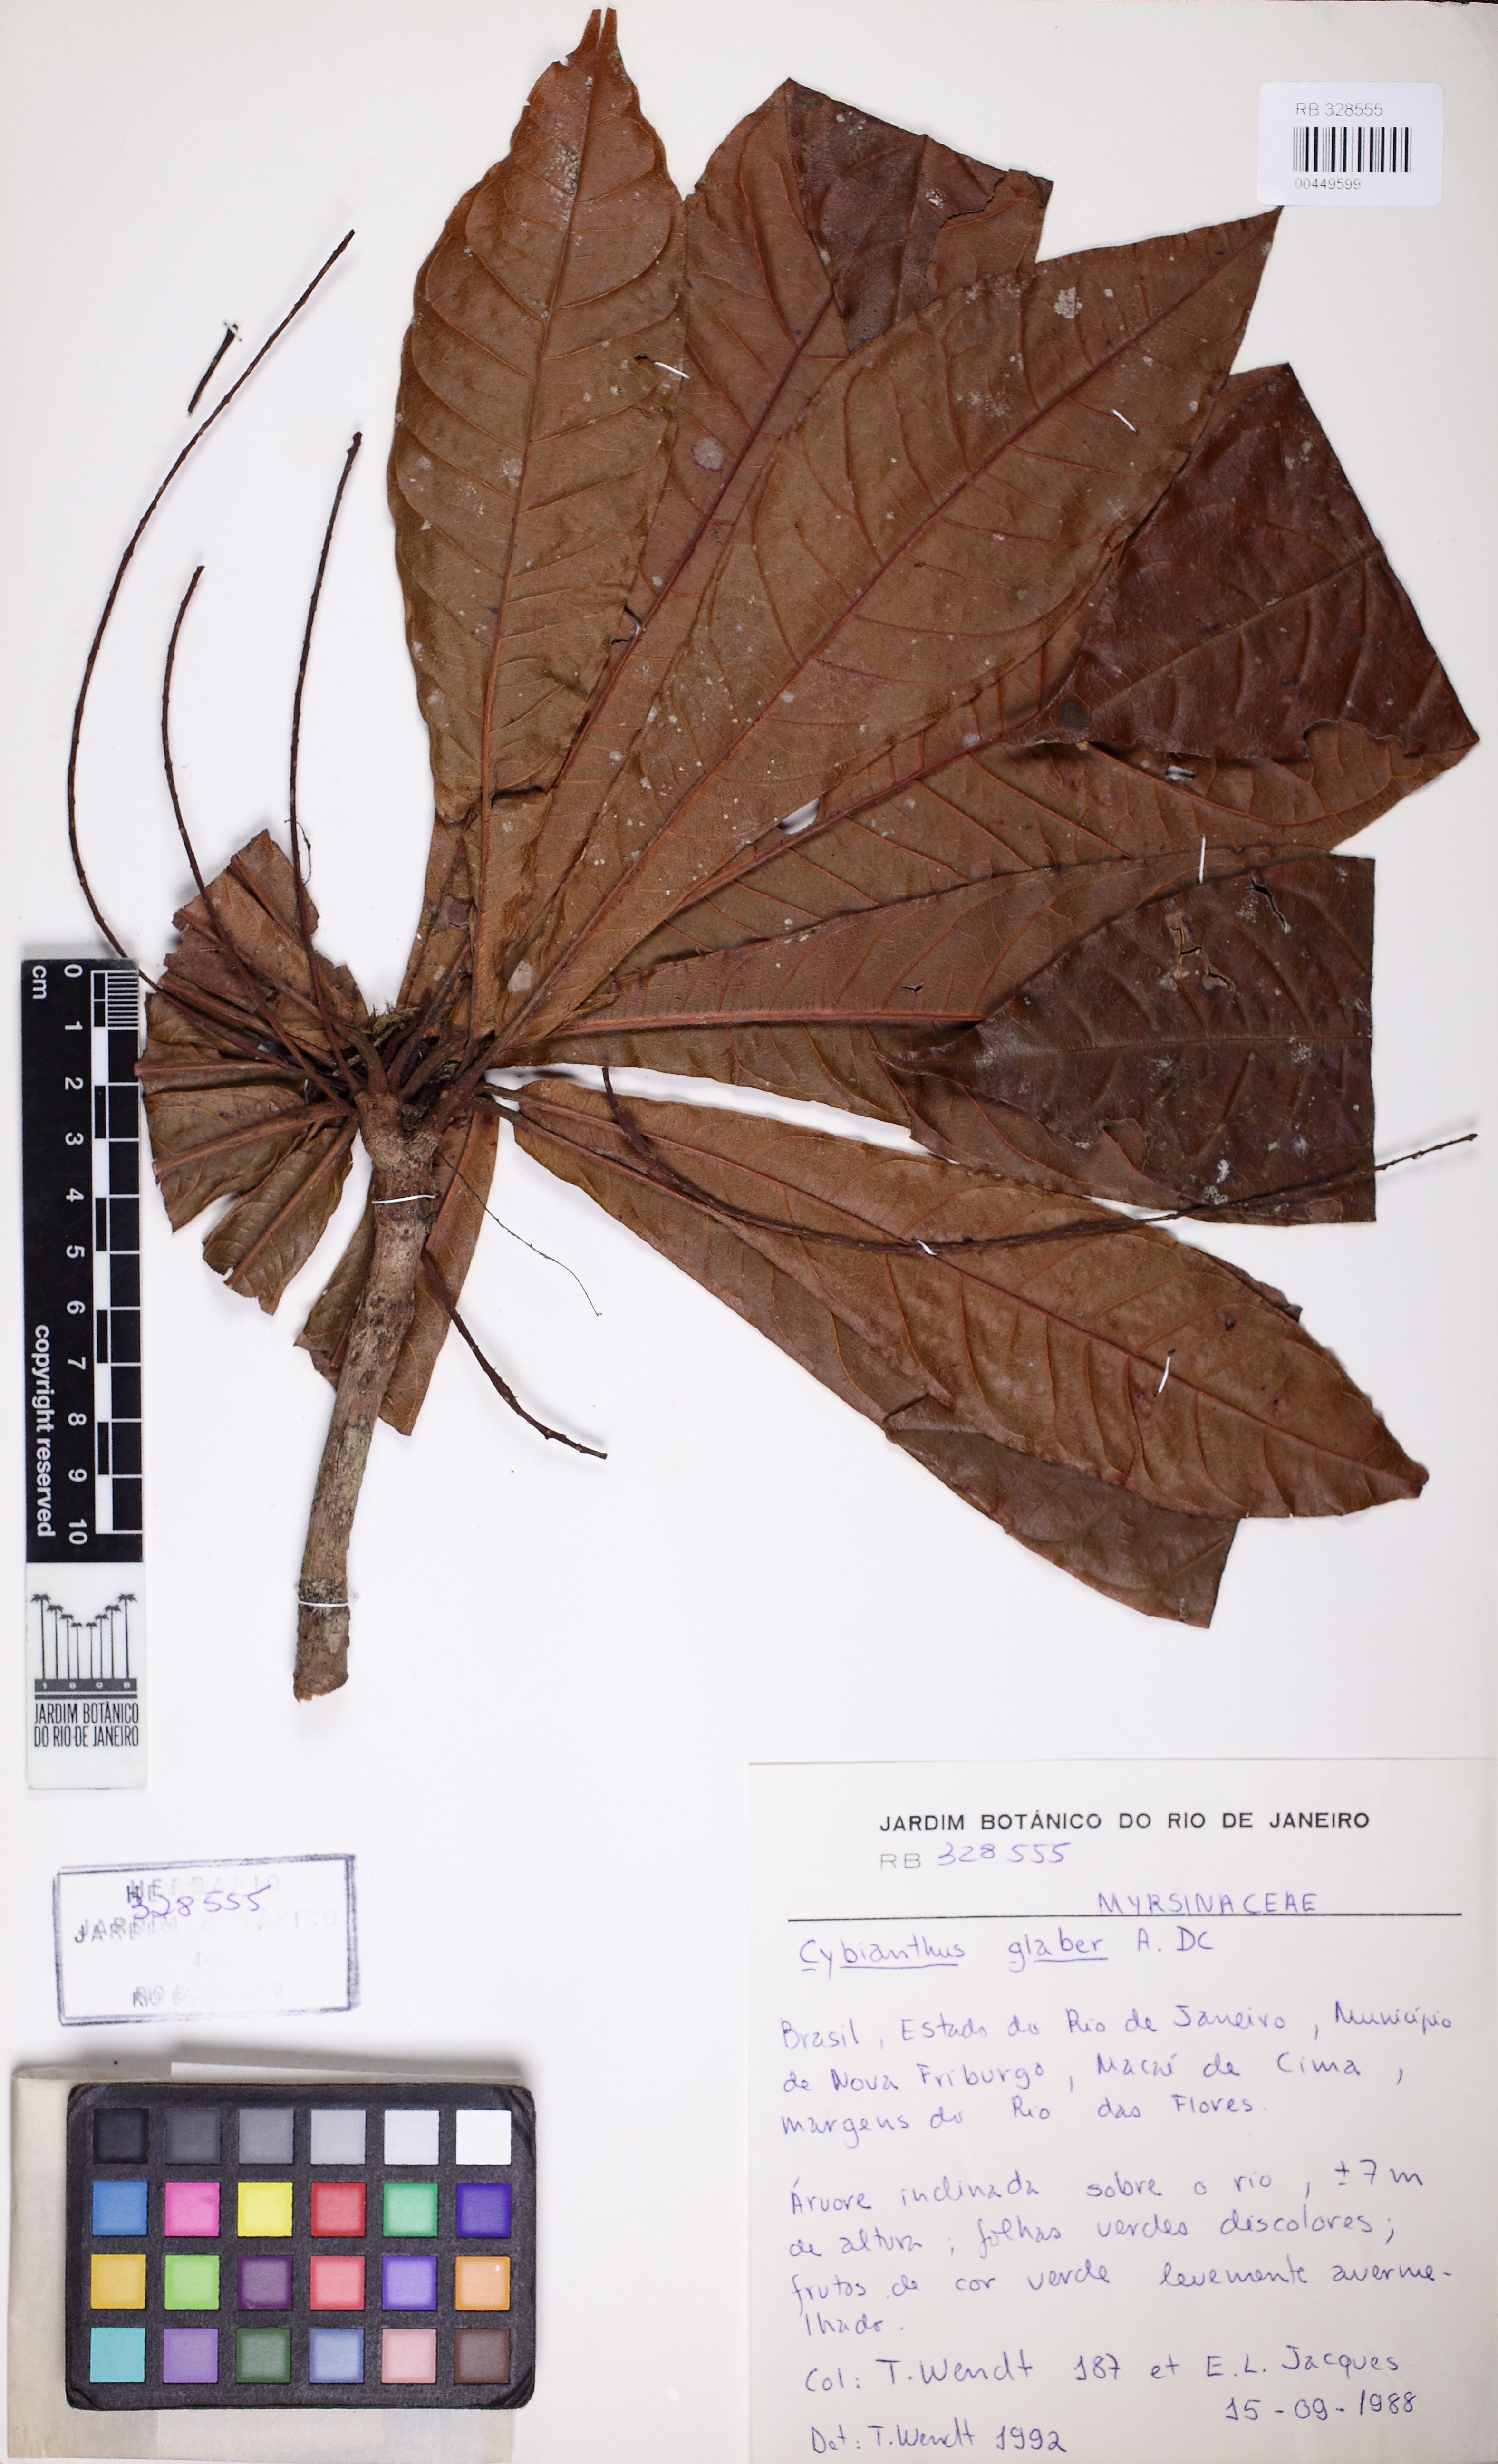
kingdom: Plantae
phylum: Tracheophyta
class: Magnoliopsida
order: Ericales
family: Primulaceae
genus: Cybianthus
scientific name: Cybianthus glaber
